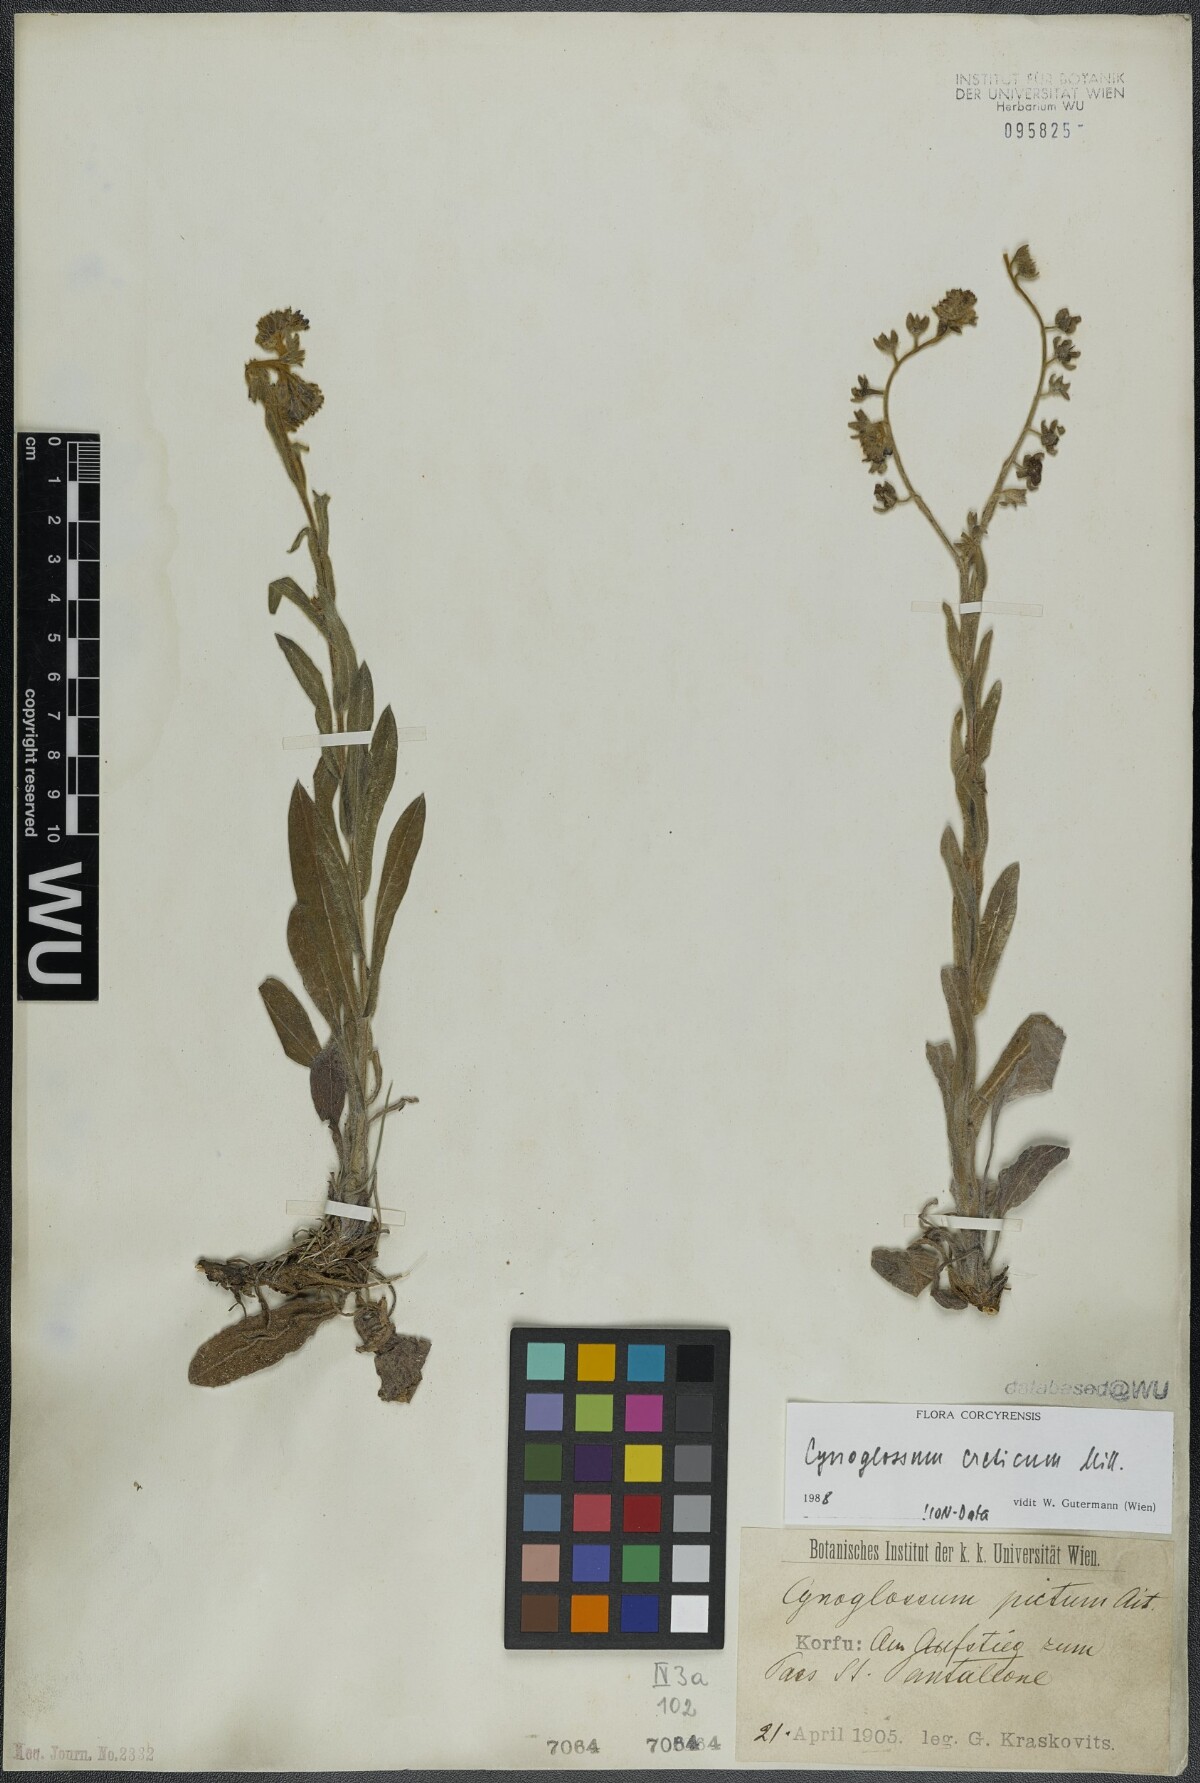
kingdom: Plantae
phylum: Tracheophyta
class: Magnoliopsida
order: Boraginales
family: Boraginaceae
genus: Cynoglossum
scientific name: Cynoglossum creticum
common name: Blue hound's tongue
